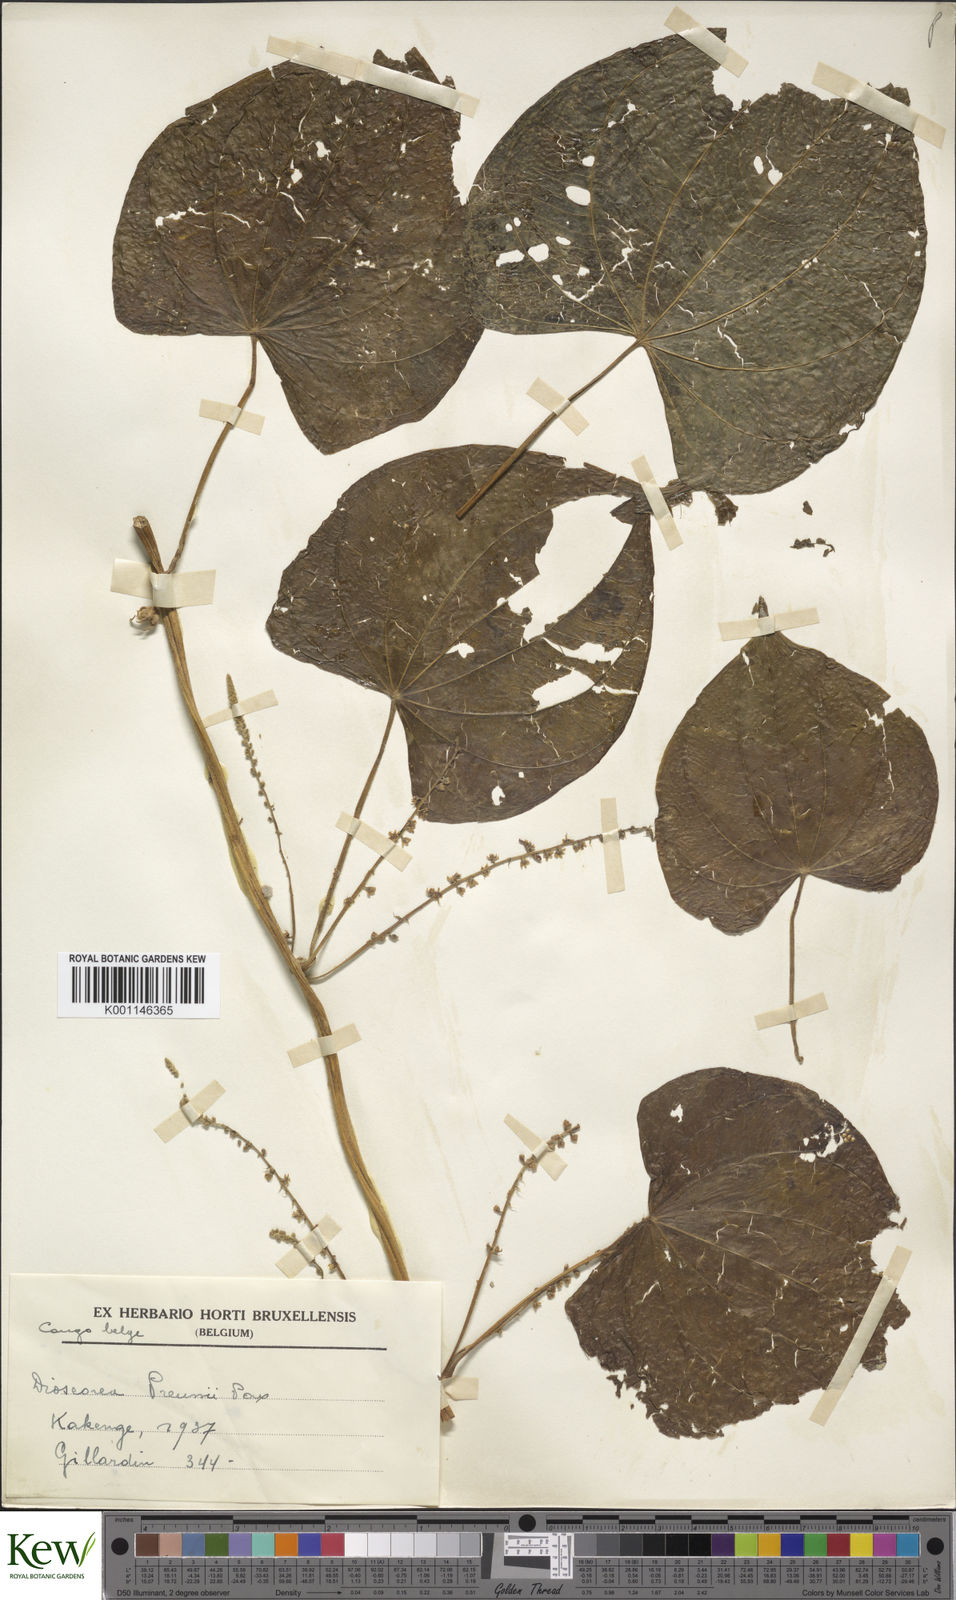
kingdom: Plantae
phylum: Tracheophyta
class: Liliopsida
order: Dioscoreales
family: Dioscoreaceae
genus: Dioscorea
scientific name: Dioscorea preussii
